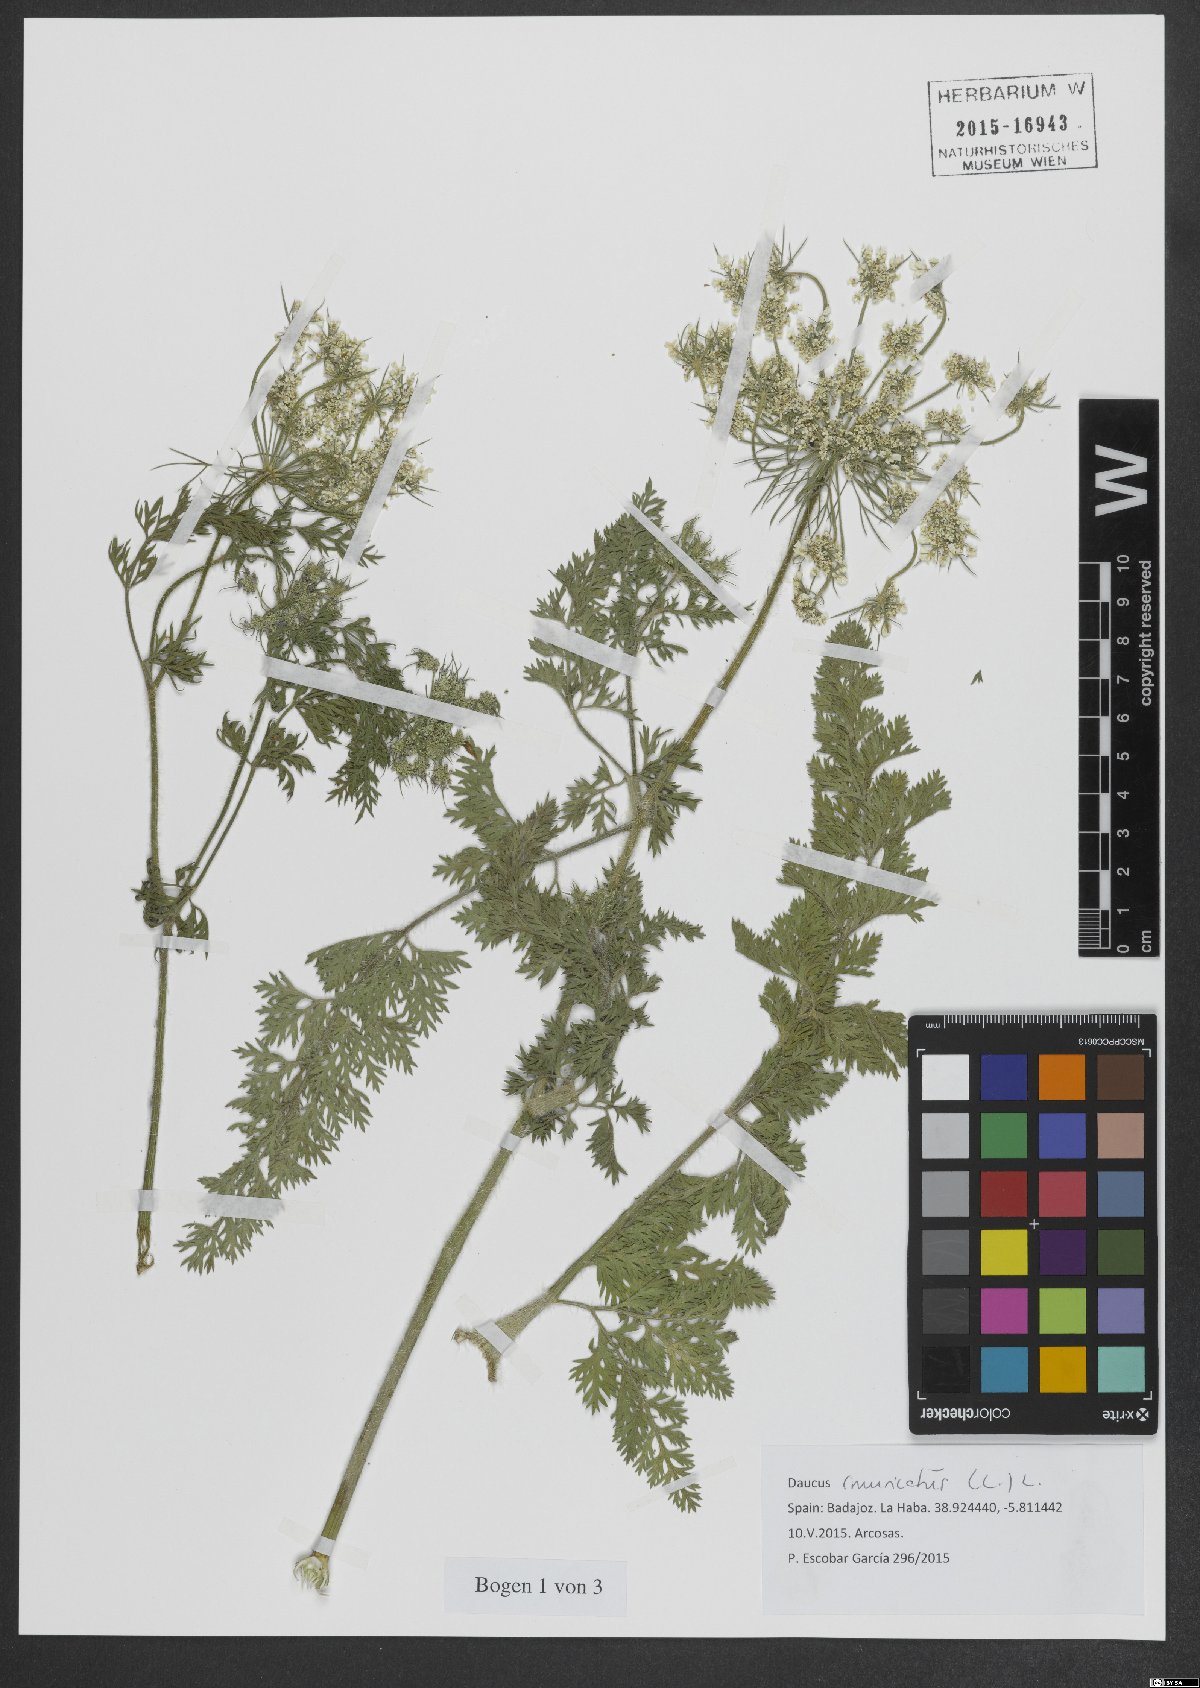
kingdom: Plantae
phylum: Tracheophyta
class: Magnoliopsida
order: Apiales
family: Apiaceae
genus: Daucus
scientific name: Daucus muricatus
